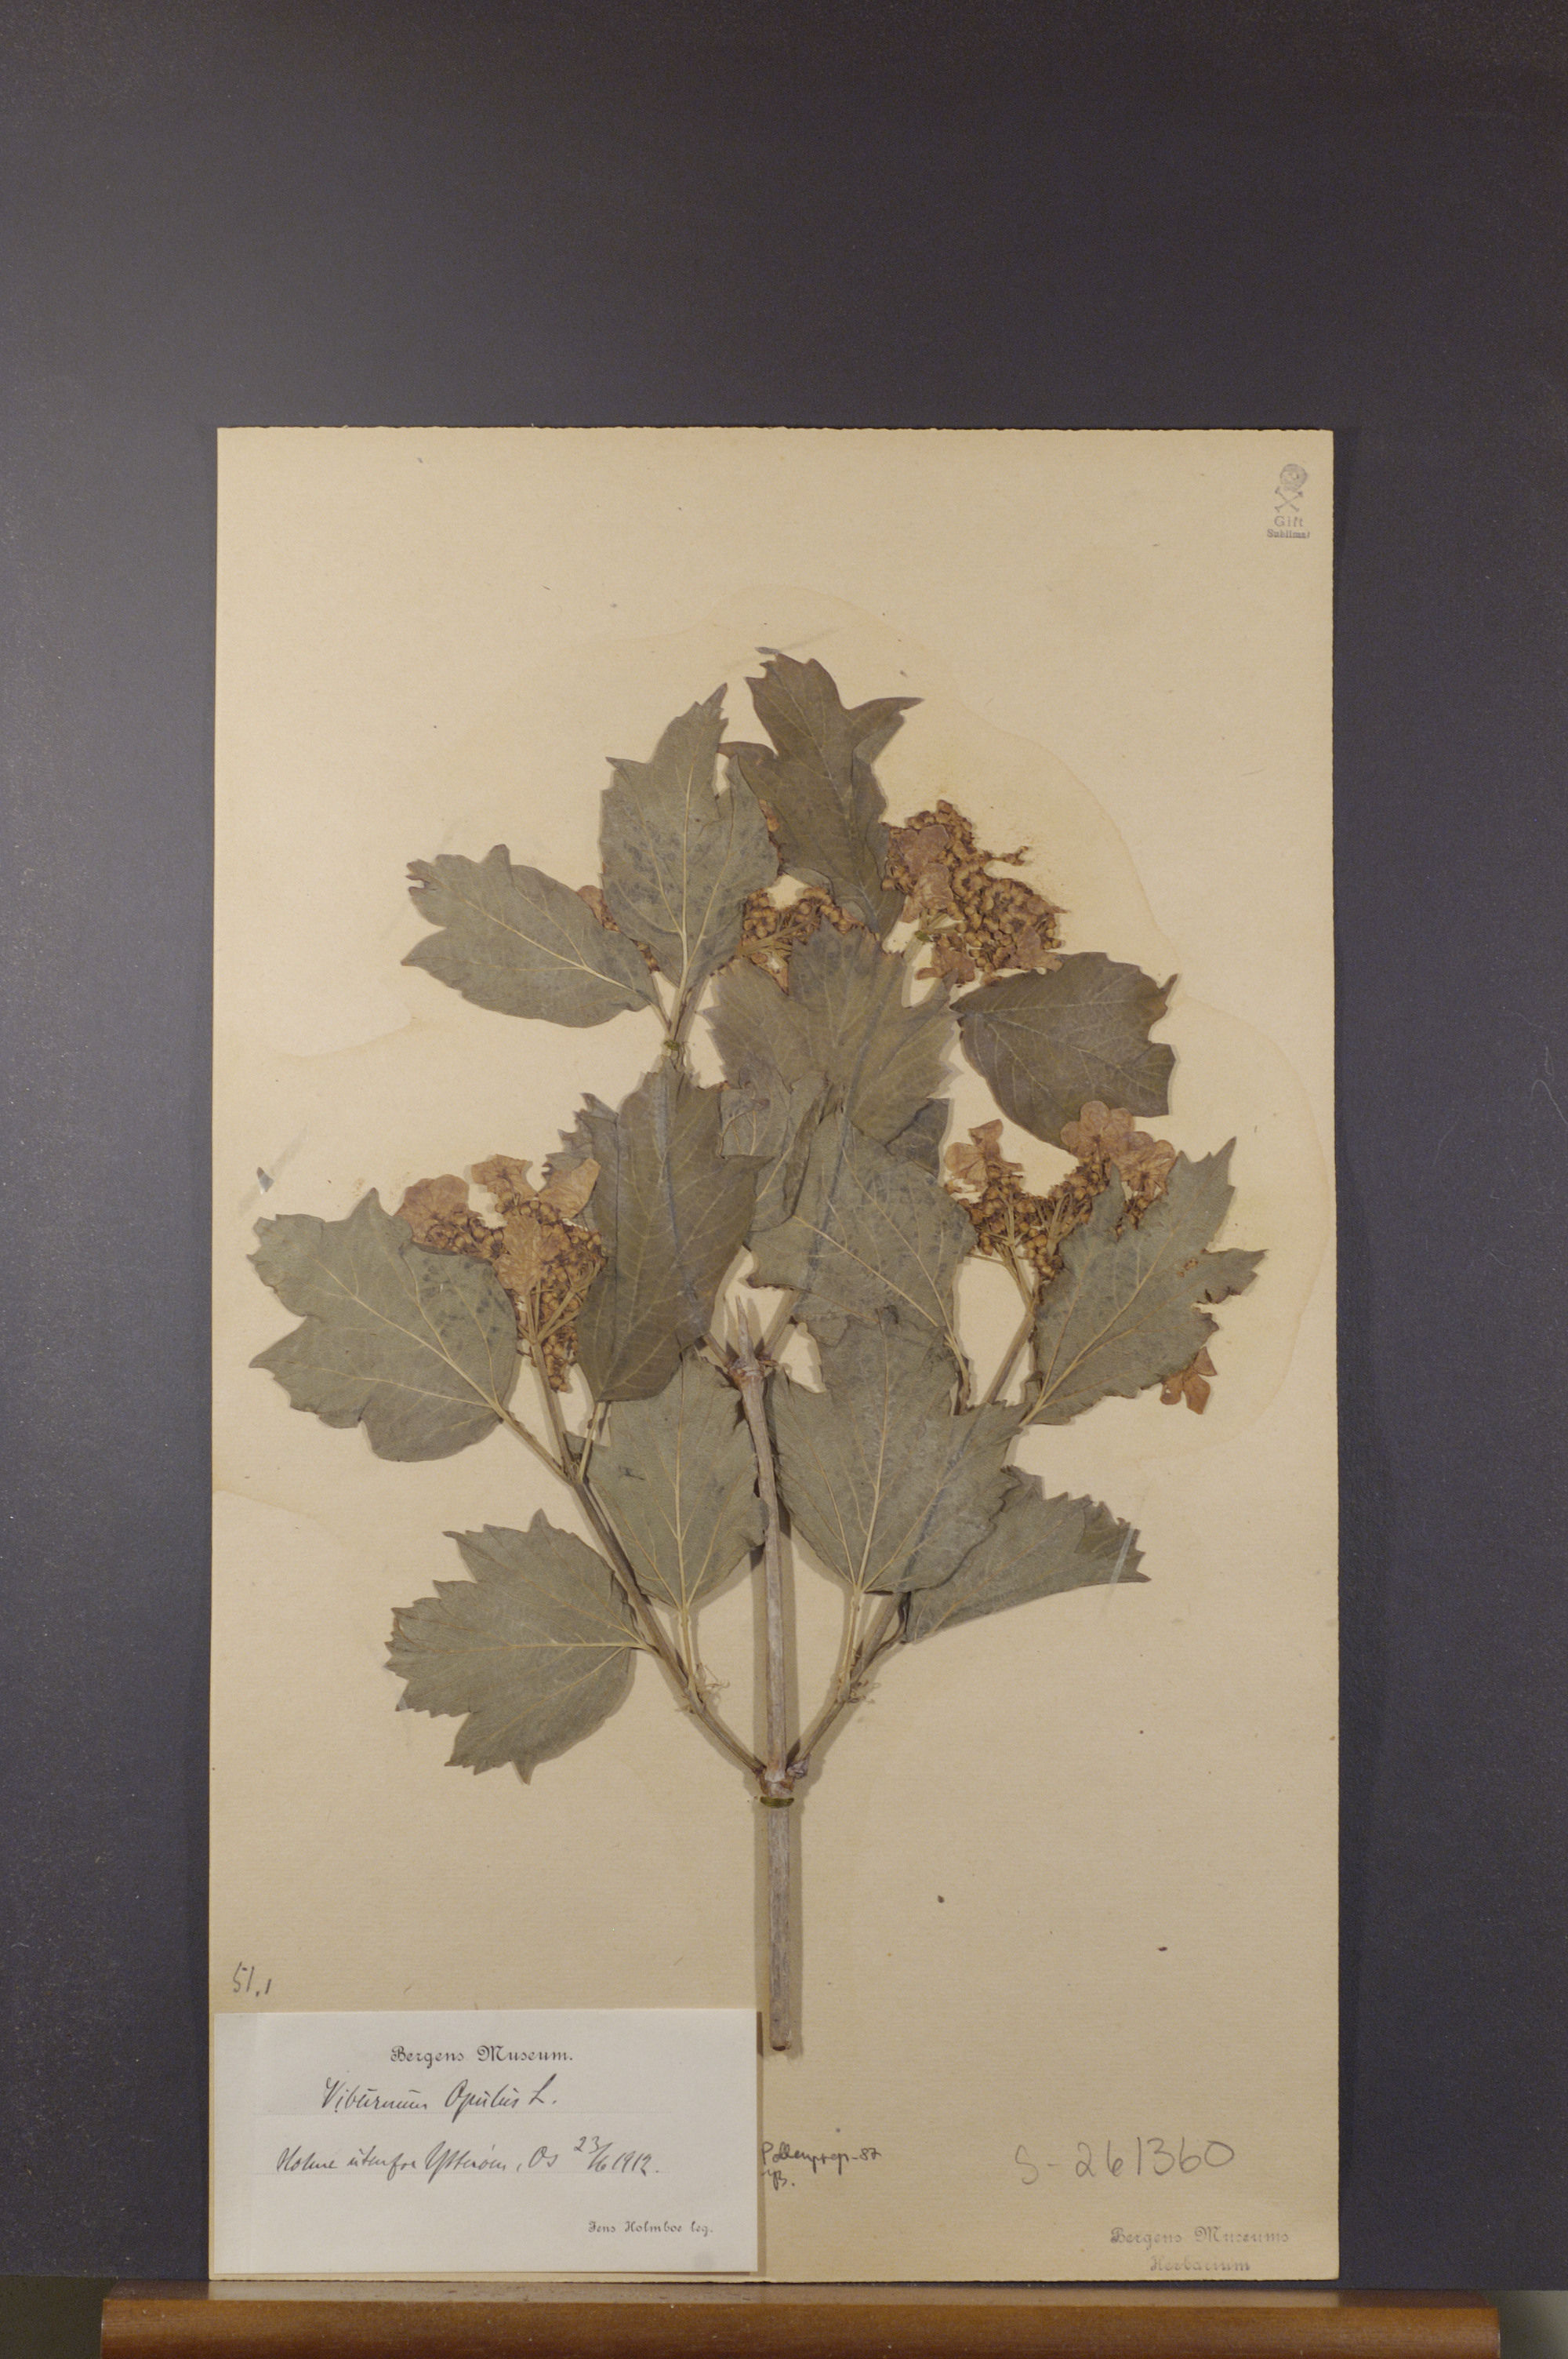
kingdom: Plantae
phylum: Tracheophyta
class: Magnoliopsida
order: Dipsacales
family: Viburnaceae
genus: Viburnum
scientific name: Viburnum opulus
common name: Guelder-rose
